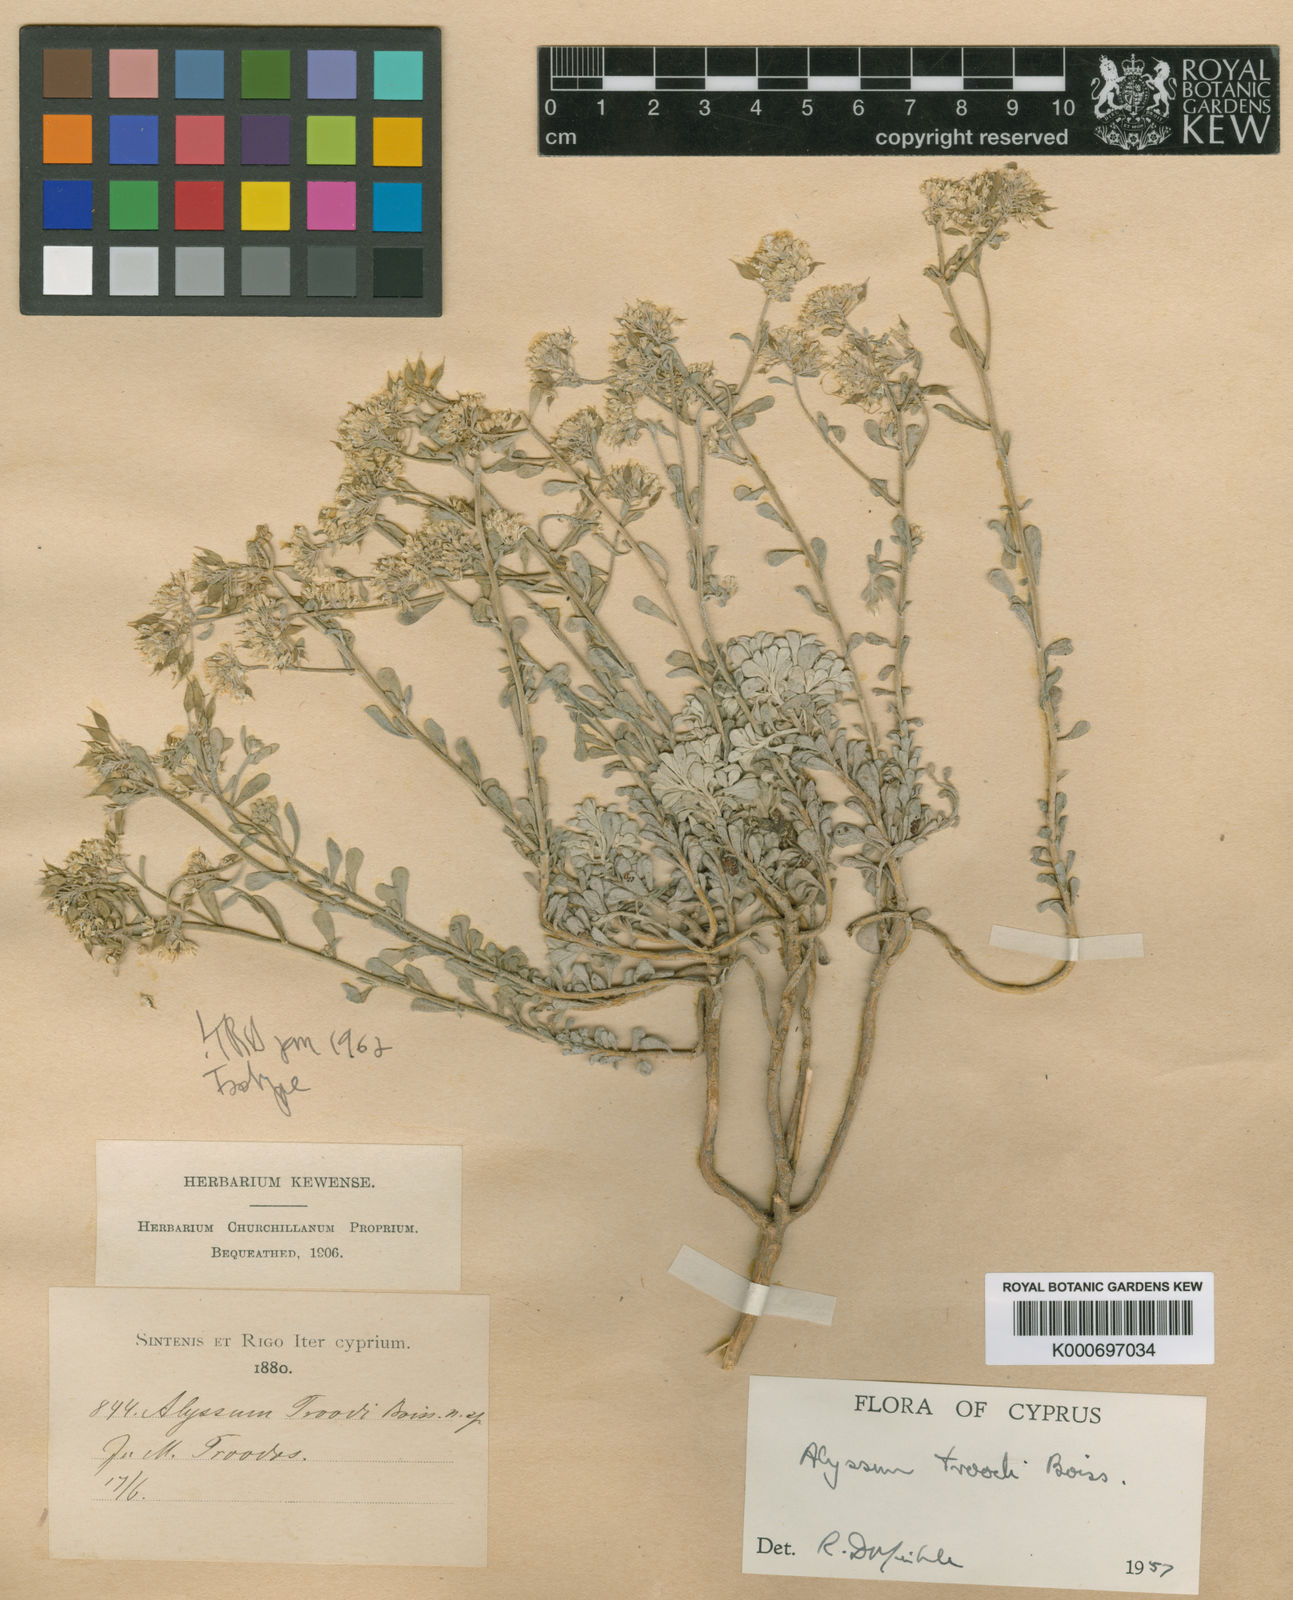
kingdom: Plantae
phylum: Tracheophyta
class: Magnoliopsida
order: Brassicales
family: Brassicaceae
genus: Odontarrhena
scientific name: Odontarrhena troodi
